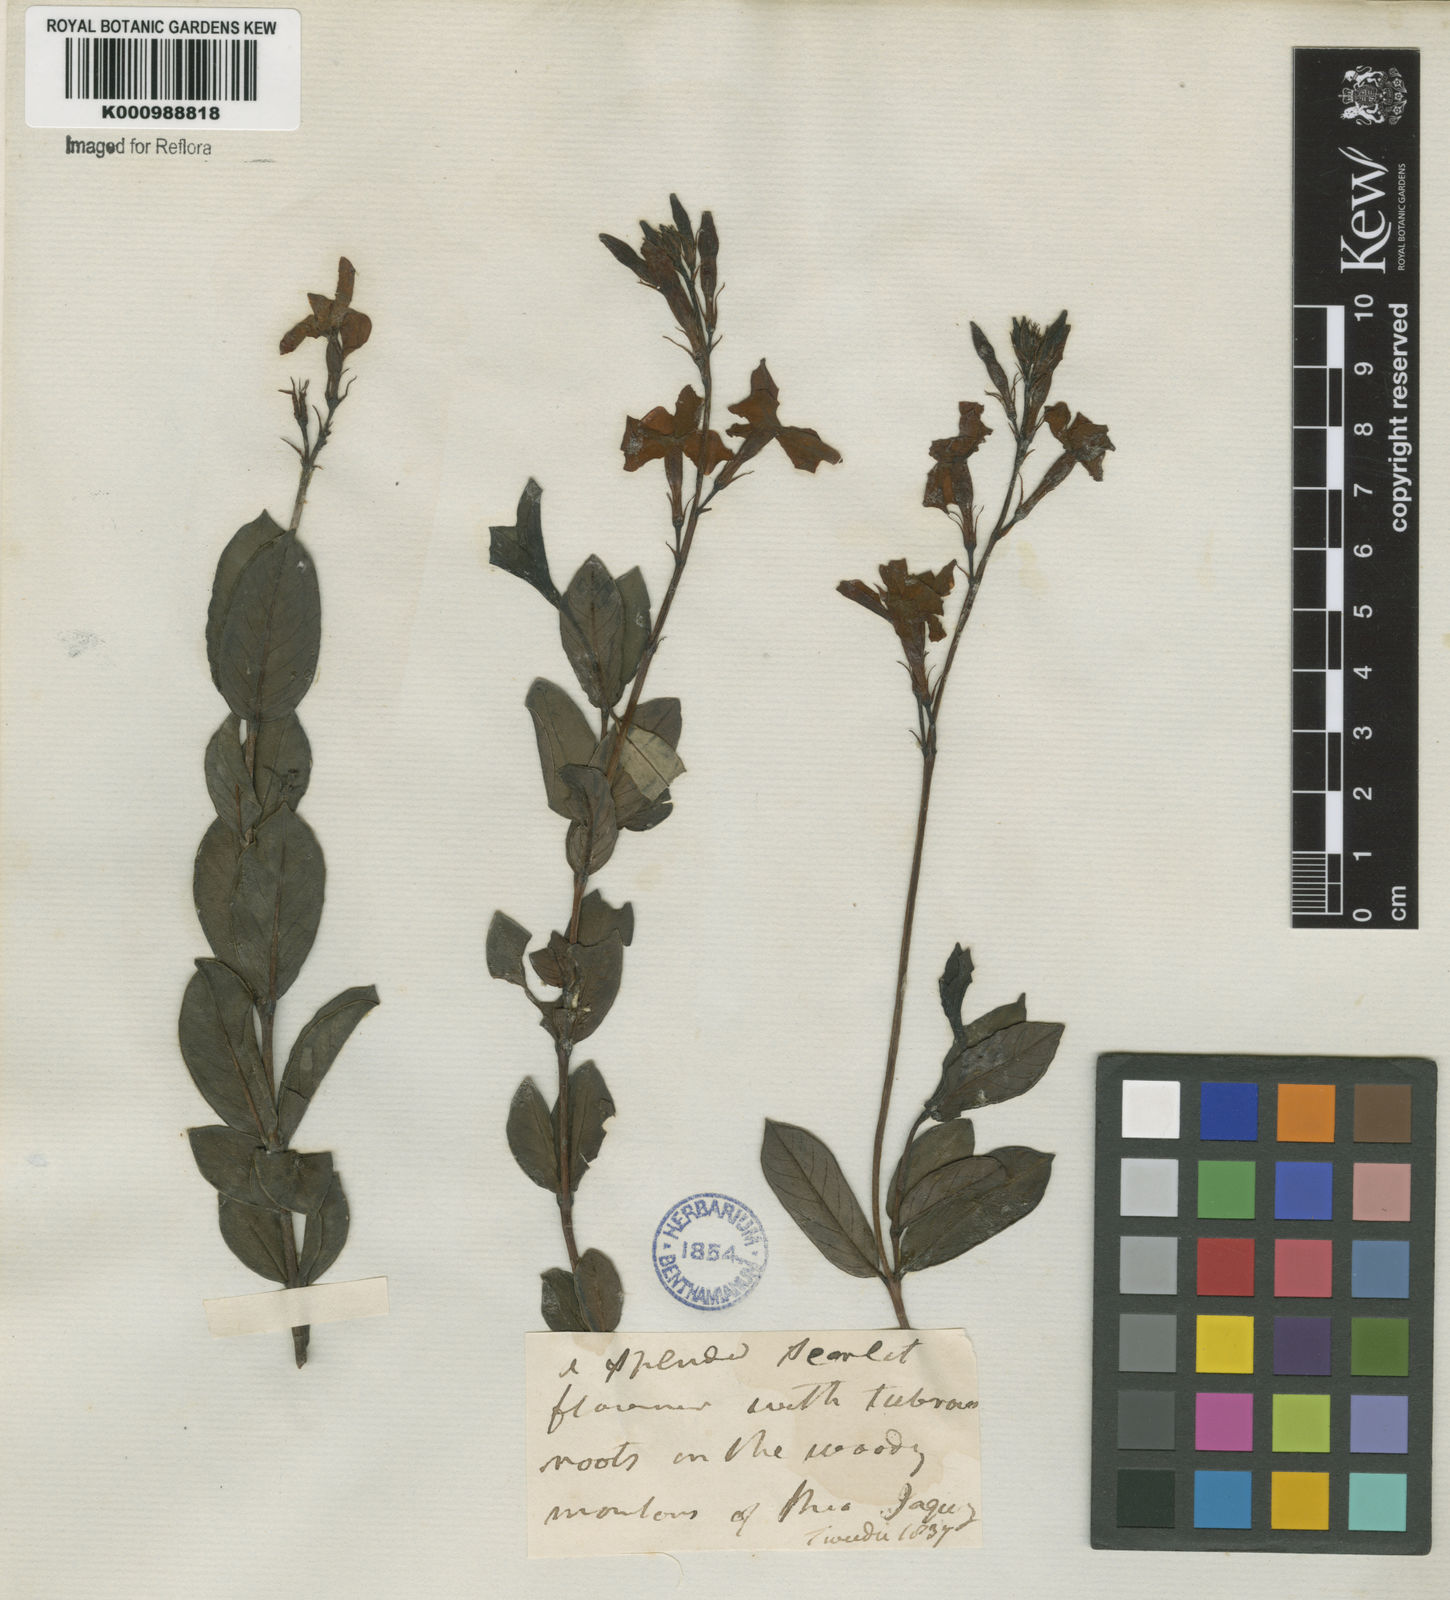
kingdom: Plantae
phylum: Tracheophyta
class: Magnoliopsida
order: Gentianales
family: Apocynaceae
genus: Mandevilla
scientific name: Mandevilla
